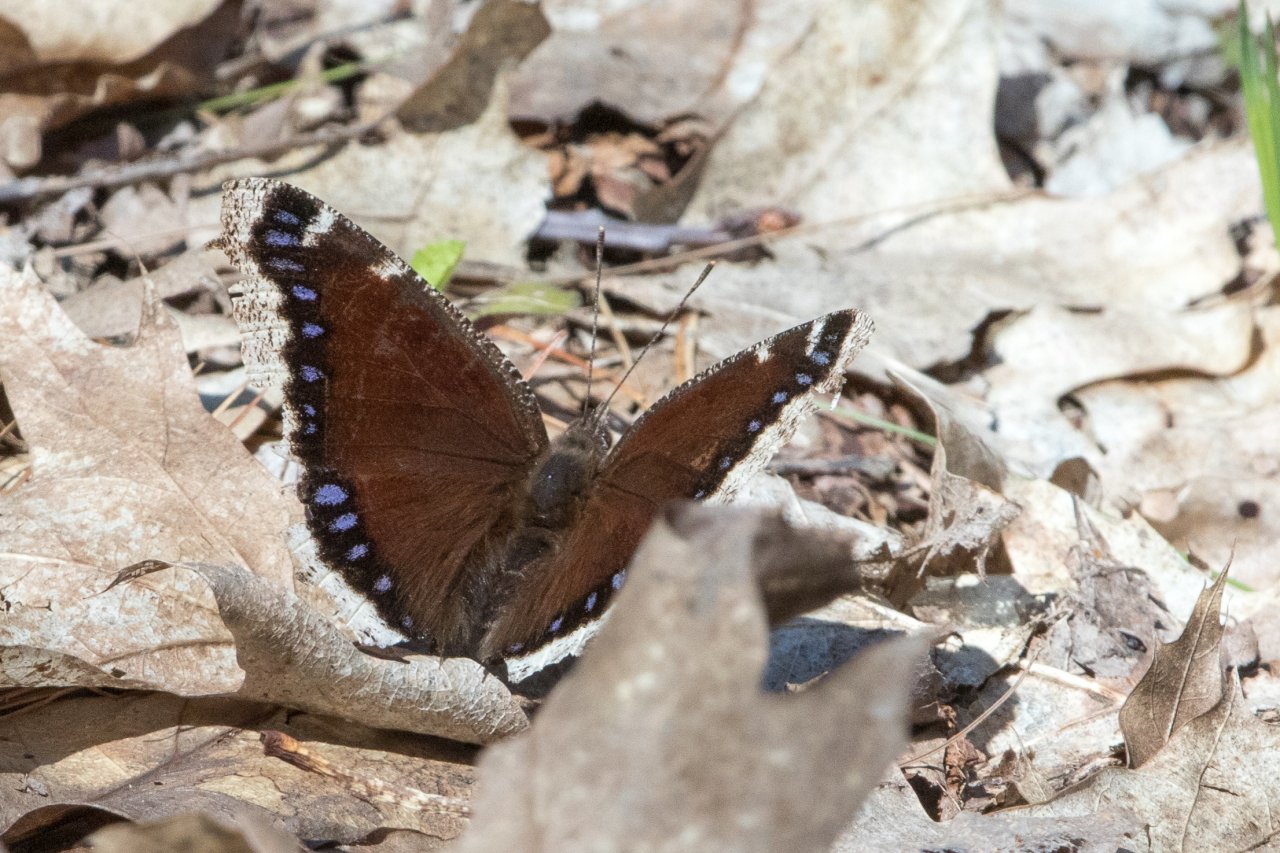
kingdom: Animalia
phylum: Arthropoda
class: Insecta
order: Lepidoptera
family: Nymphalidae
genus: Nymphalis
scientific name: Nymphalis antiopa
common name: Mourning Cloak
